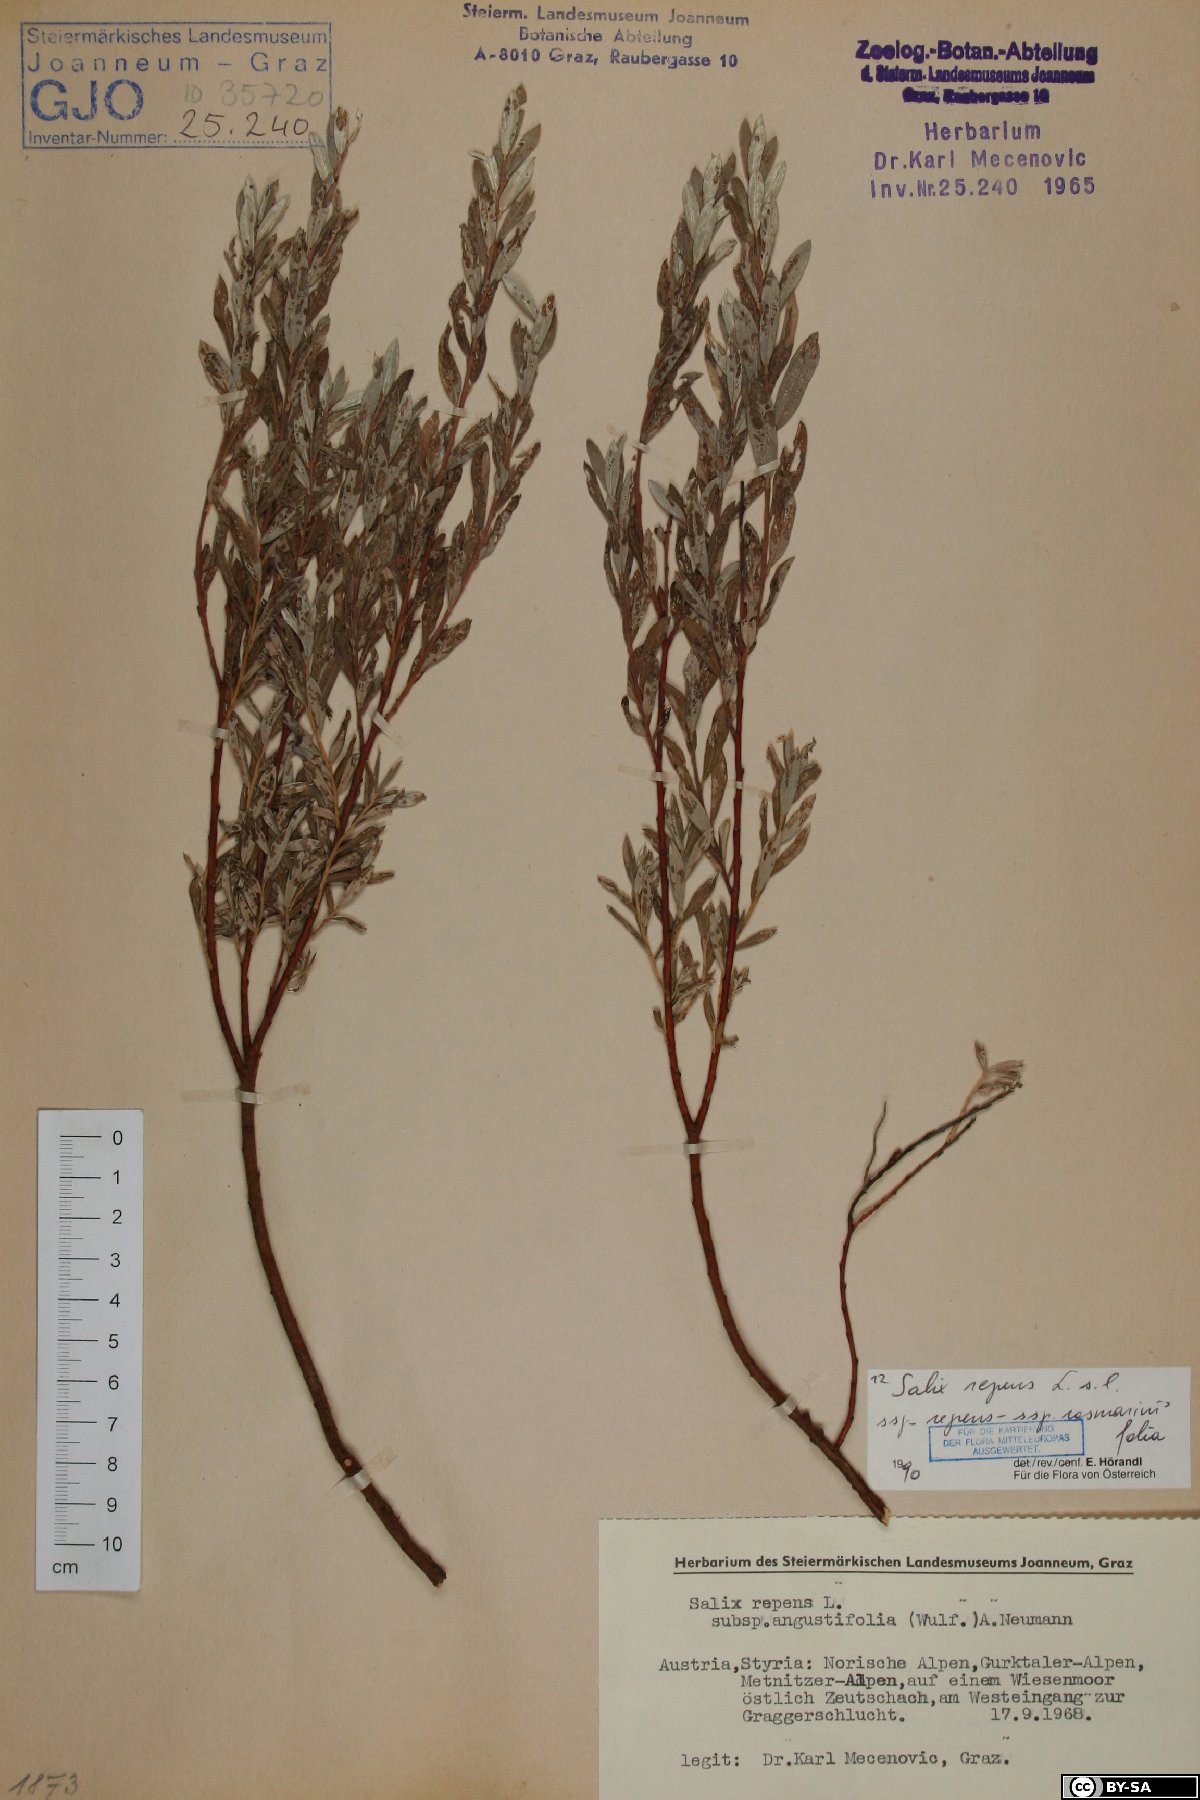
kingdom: Plantae
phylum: Tracheophyta
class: Magnoliopsida
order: Malpighiales
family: Salicaceae
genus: Salix
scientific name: Salix repens
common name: Creeping willow
